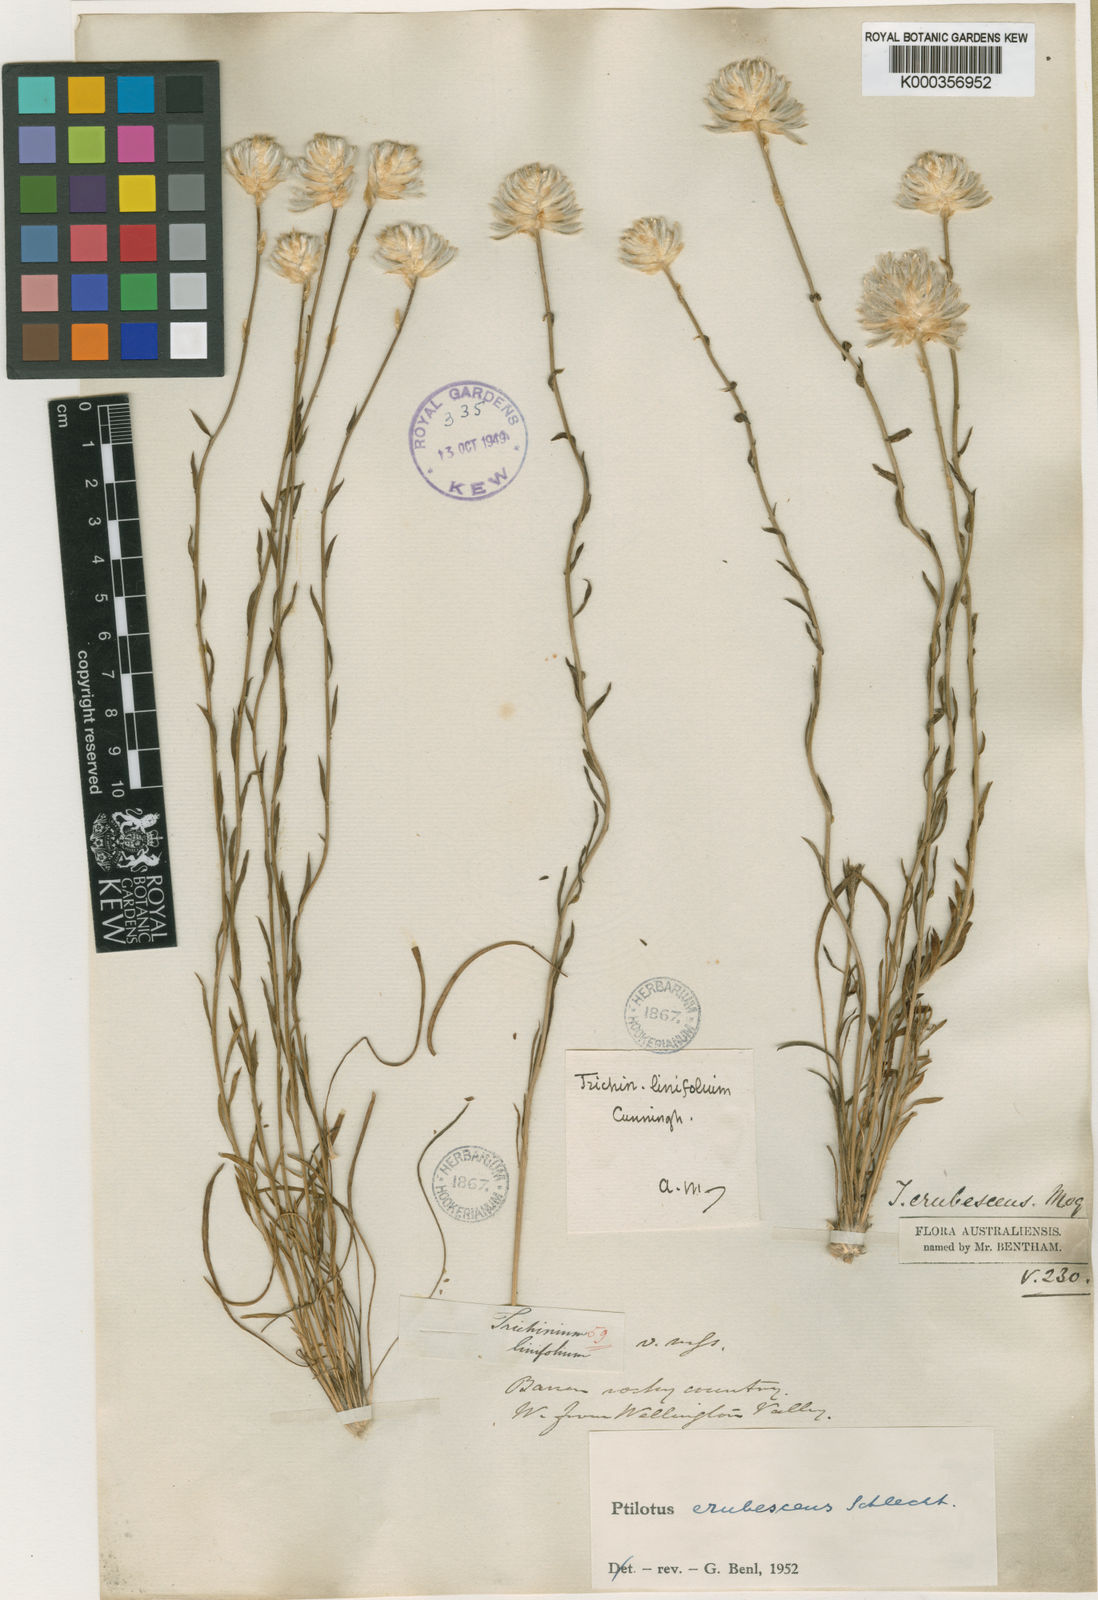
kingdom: Plantae
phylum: Tracheophyta
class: Magnoliopsida
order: Caryophyllales
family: Amaranthaceae
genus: Ptilotus
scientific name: Ptilotus erubescens
